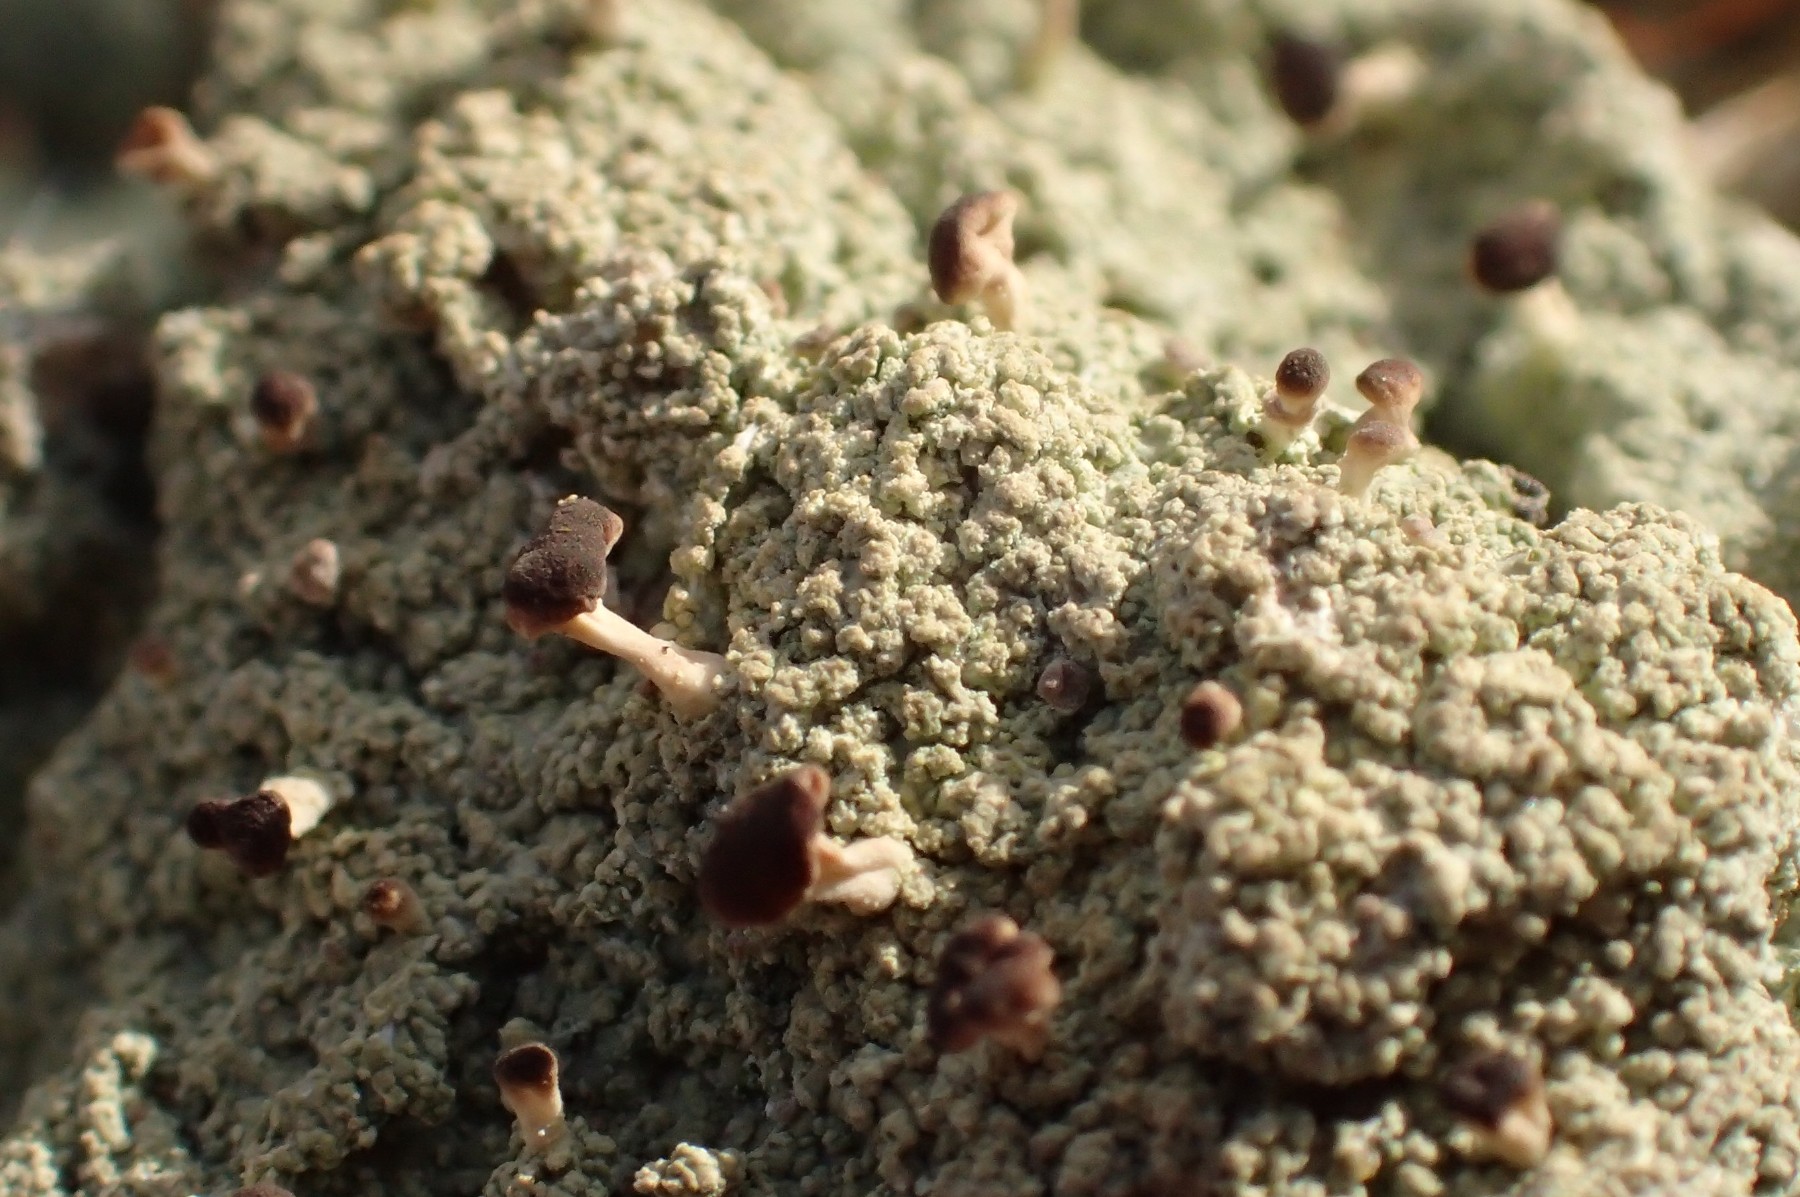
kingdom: Fungi
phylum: Ascomycota
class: Lecanoromycetes
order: Baeomycetales
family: Baeomycetaceae
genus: Baeomyces
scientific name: Baeomyces rufus
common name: rødbrun svampelav
